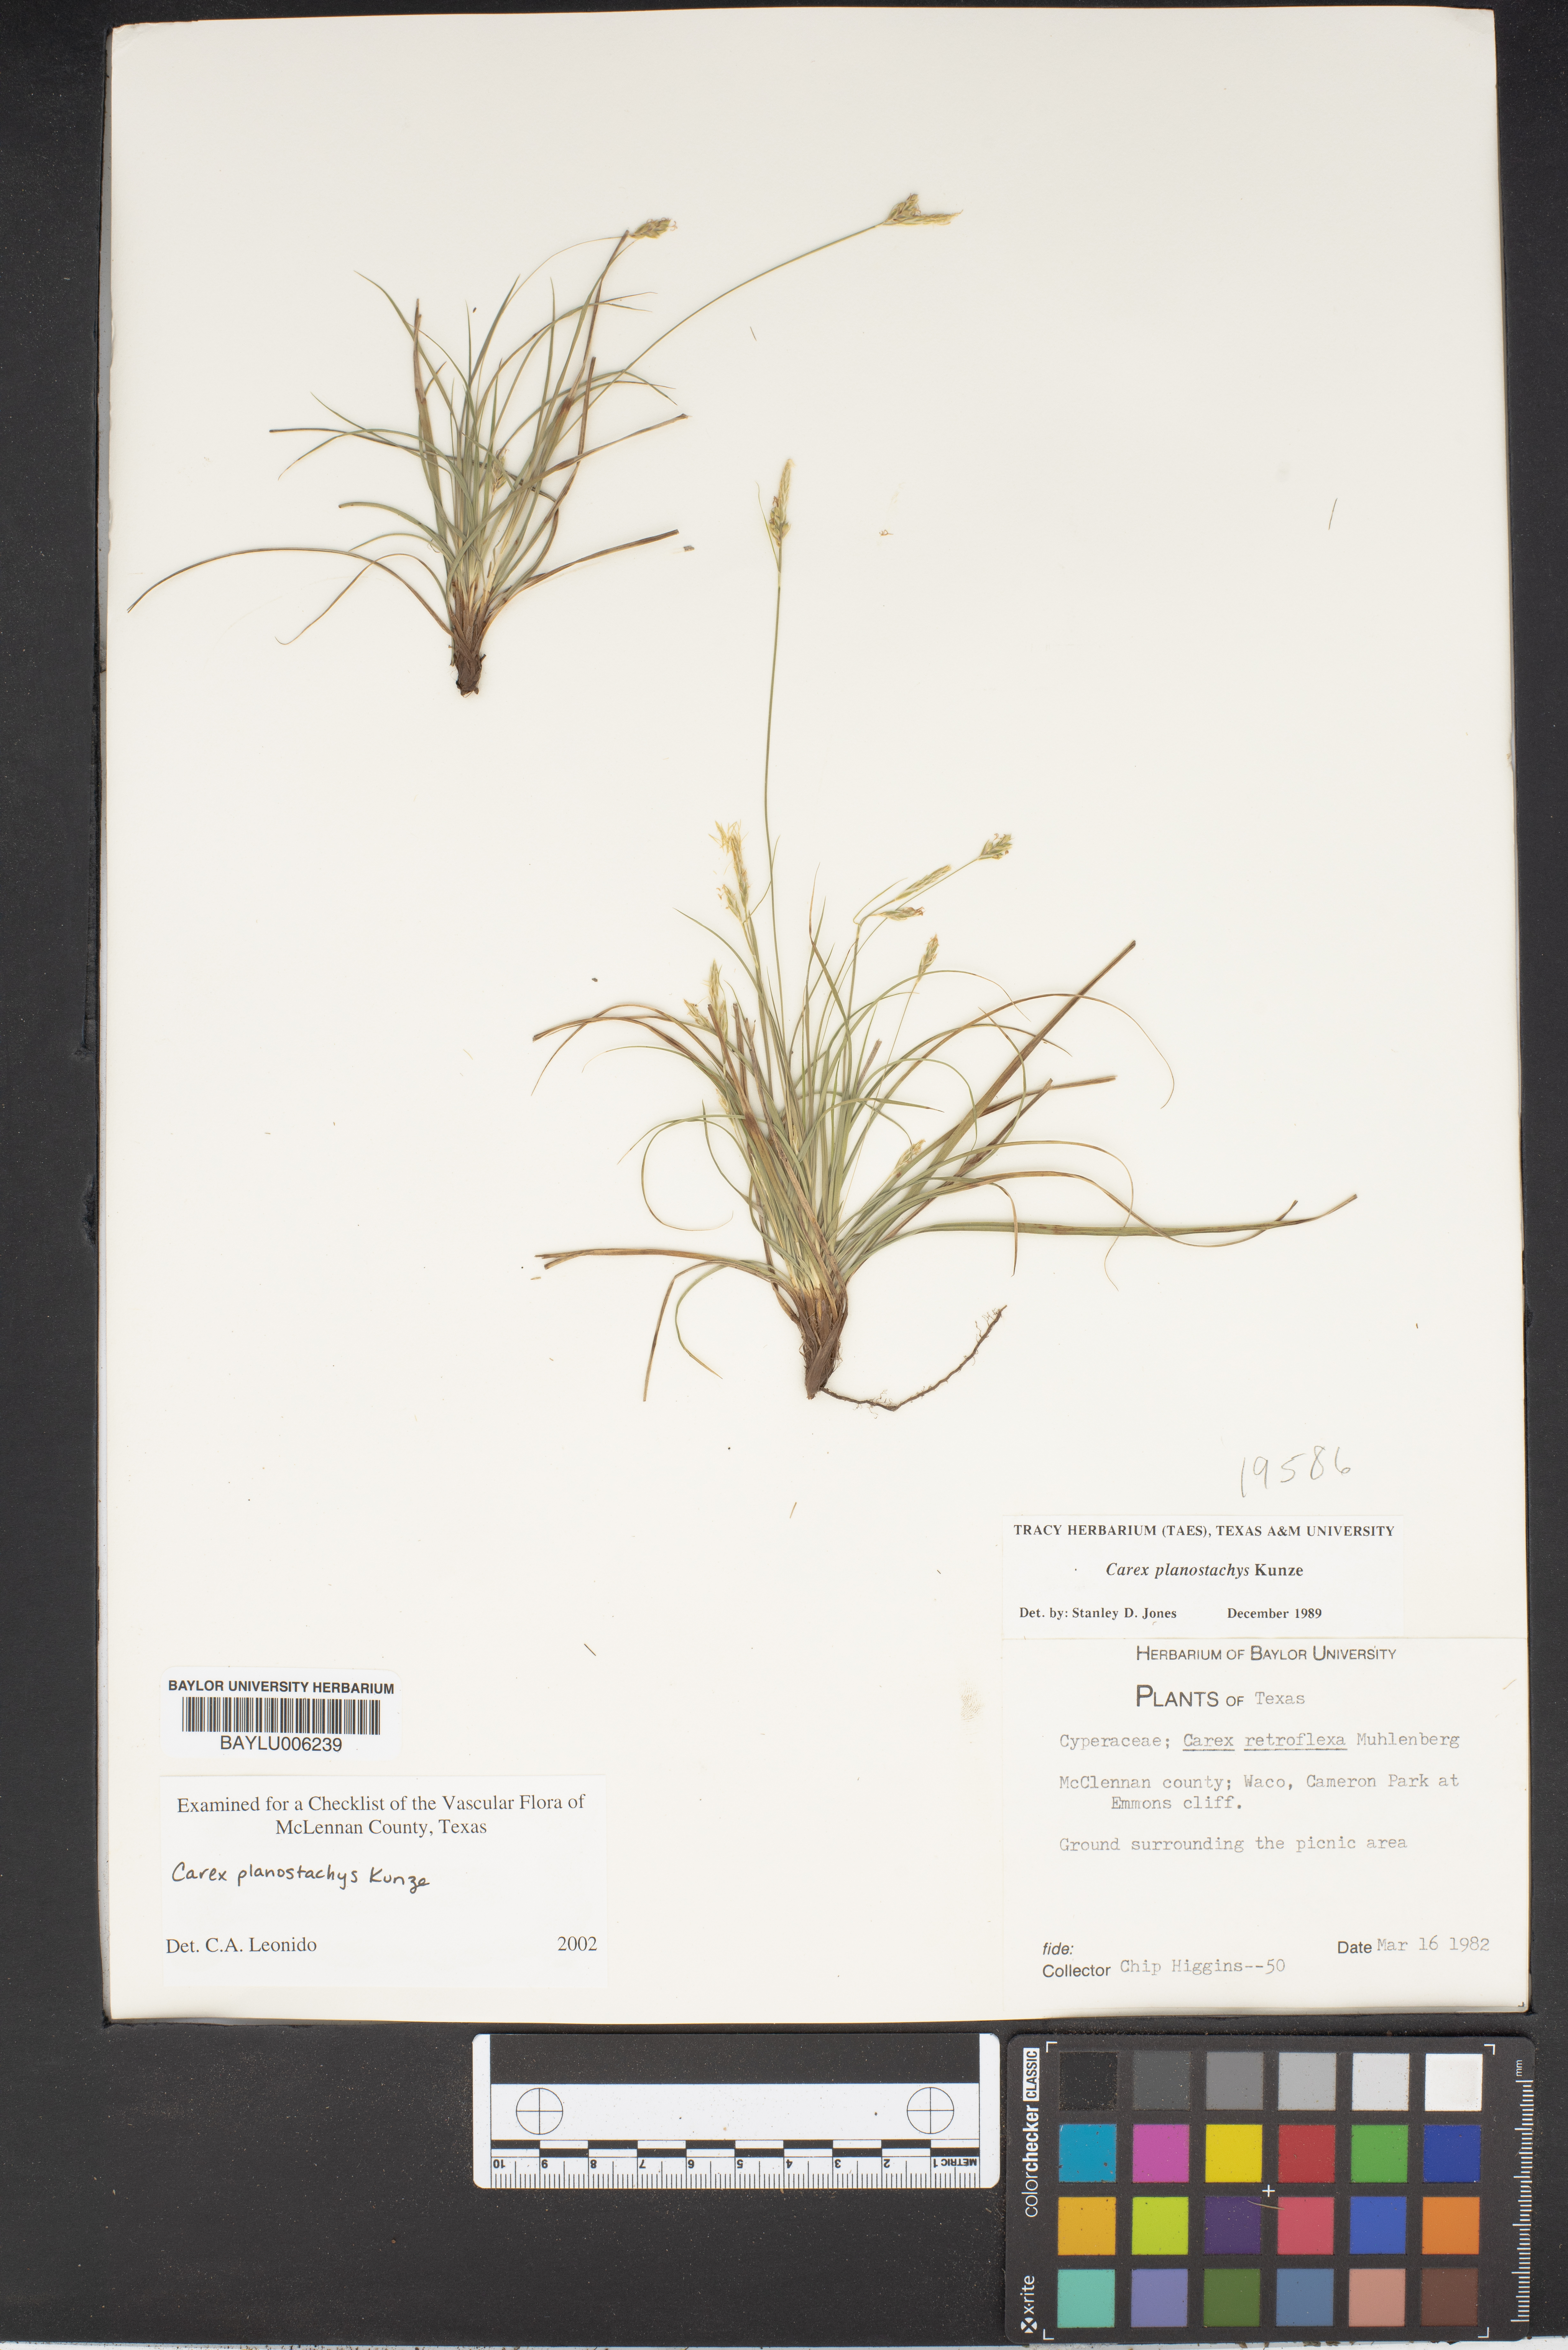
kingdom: Plantae
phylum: Tracheophyta
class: Liliopsida
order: Poales
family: Cyperaceae
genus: Carex
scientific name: Carex retroflexa
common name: Reflexed sedge
